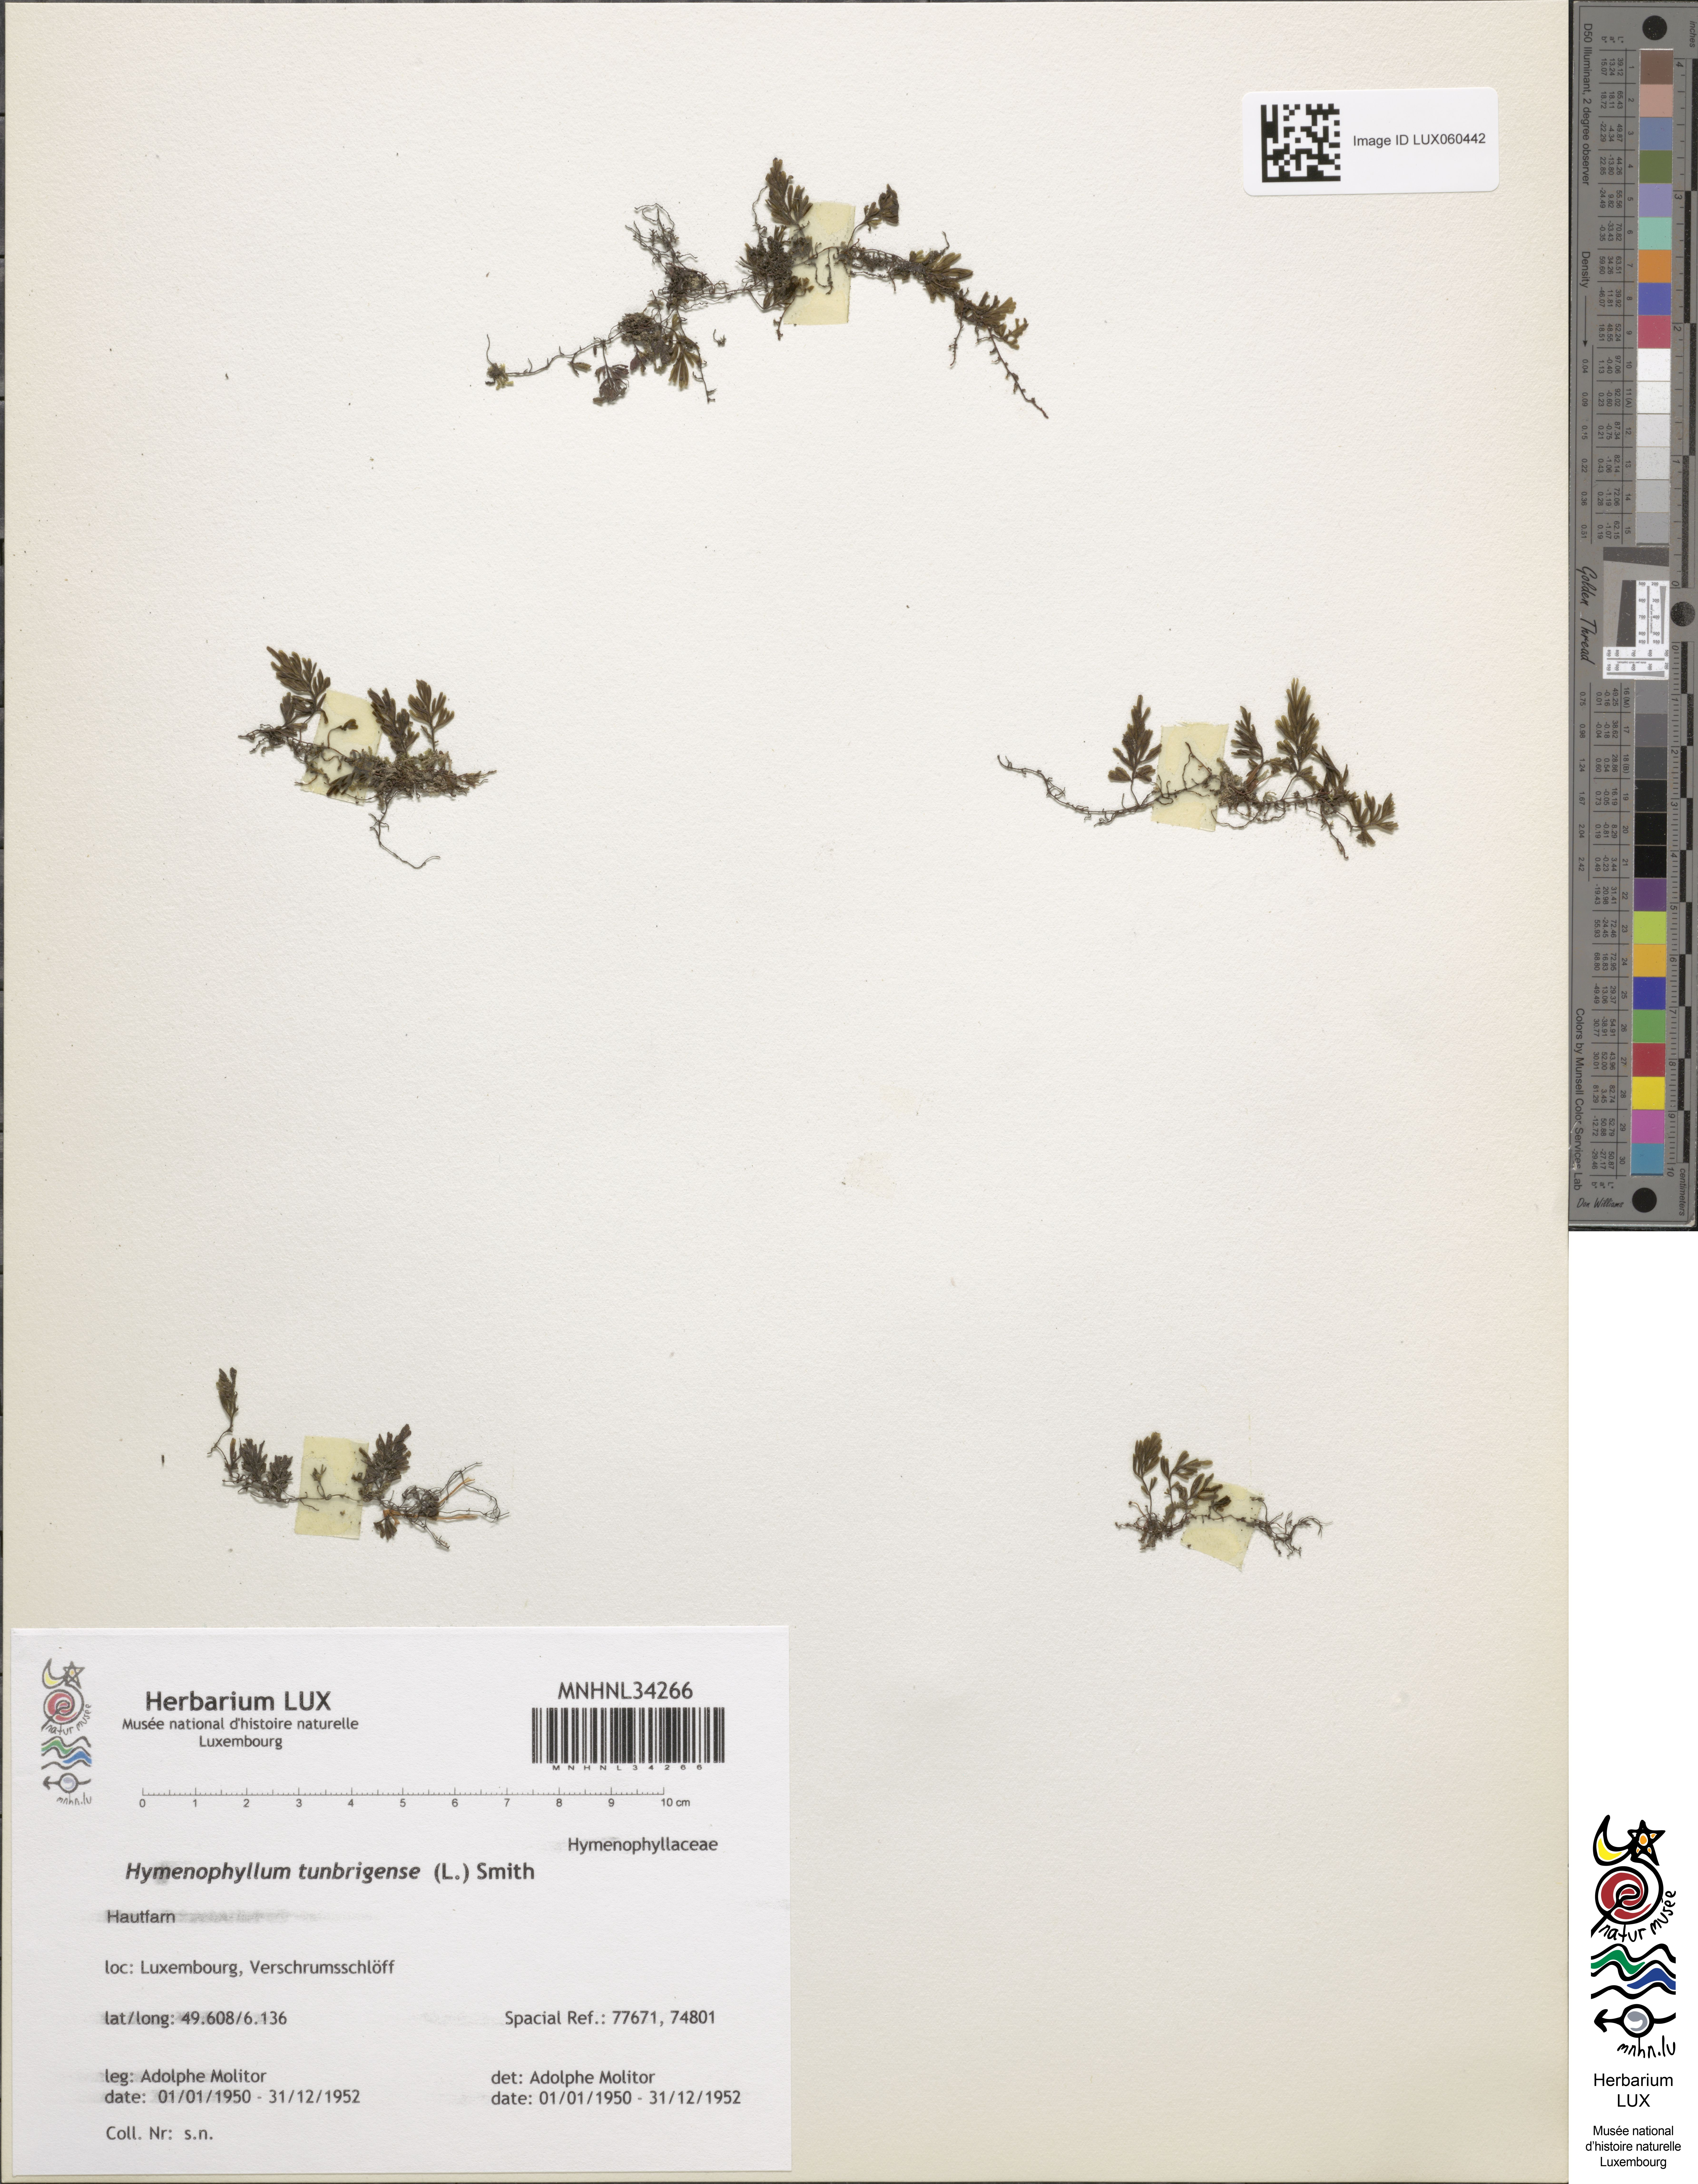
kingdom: Plantae
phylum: Tracheophyta
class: Polypodiopsida
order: Hymenophyllales
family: Hymenophyllaceae
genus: Hymenophyllum
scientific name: Hymenophyllum tunbrigense
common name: Tunbridge filmy fern
